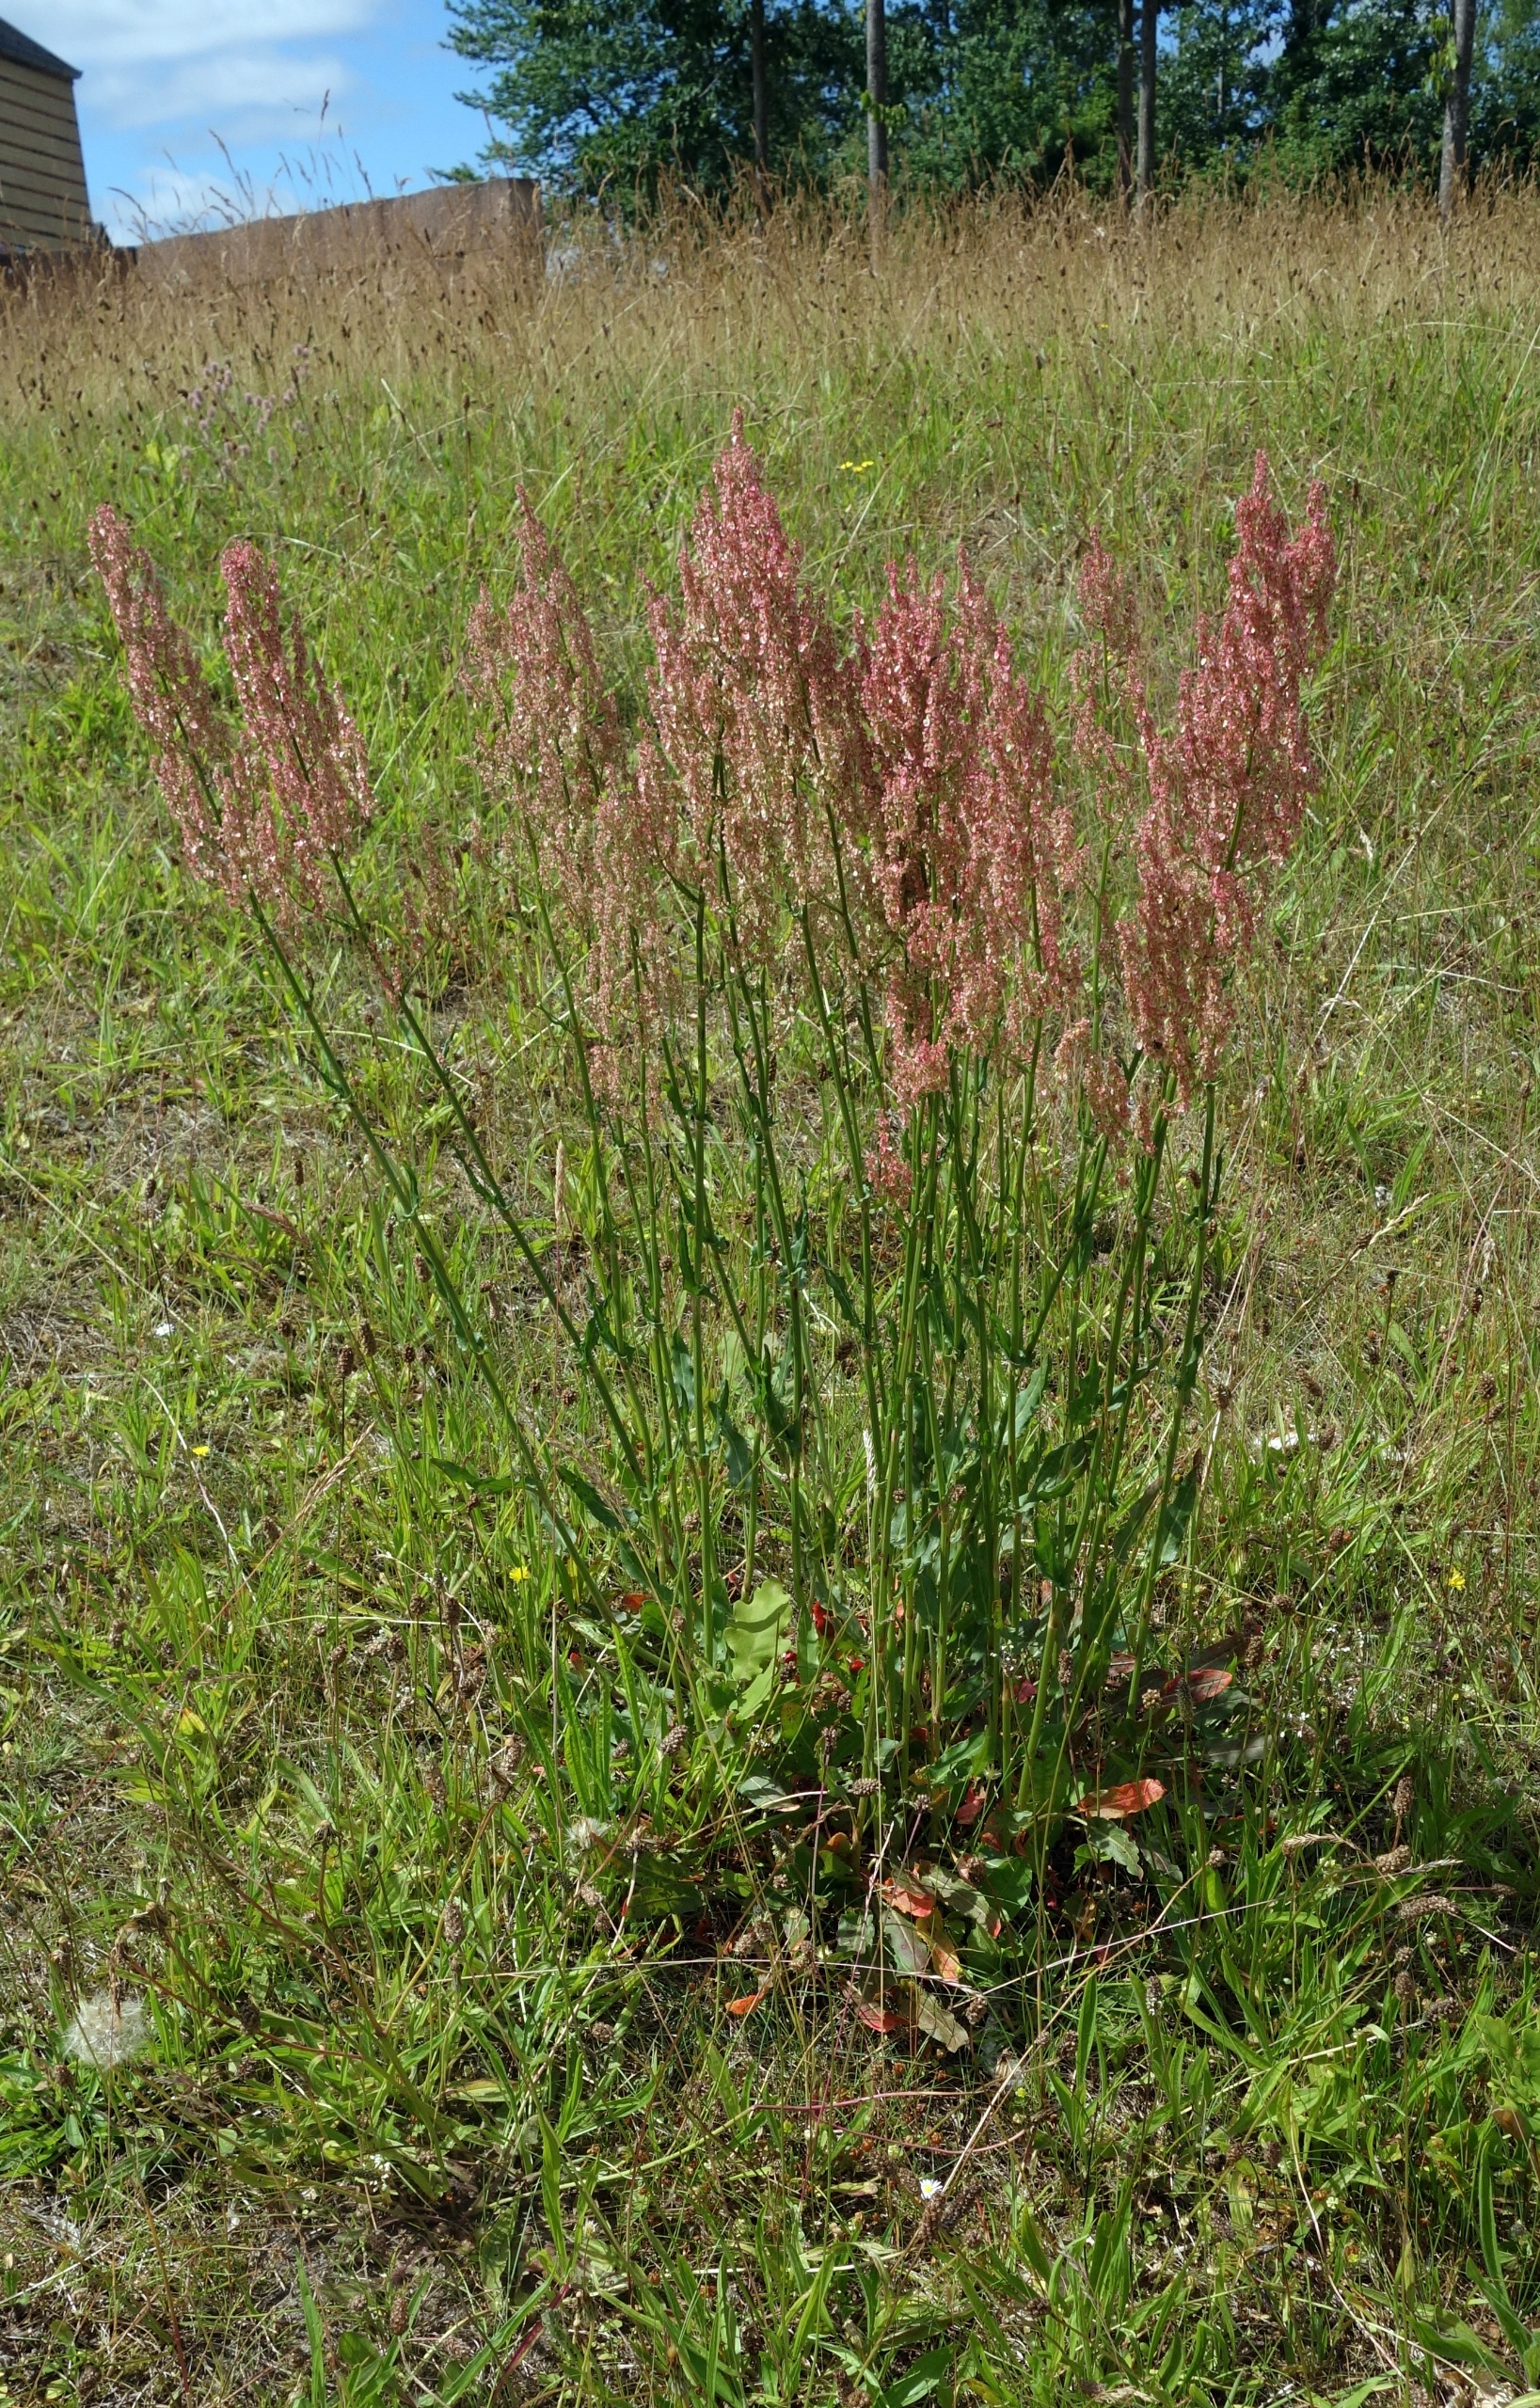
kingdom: Plantae
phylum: Tracheophyta
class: Magnoliopsida
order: Caryophyllales
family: Polygonaceae
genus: Rumex
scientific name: Rumex thyrsiflorus
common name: Dusk-syre
